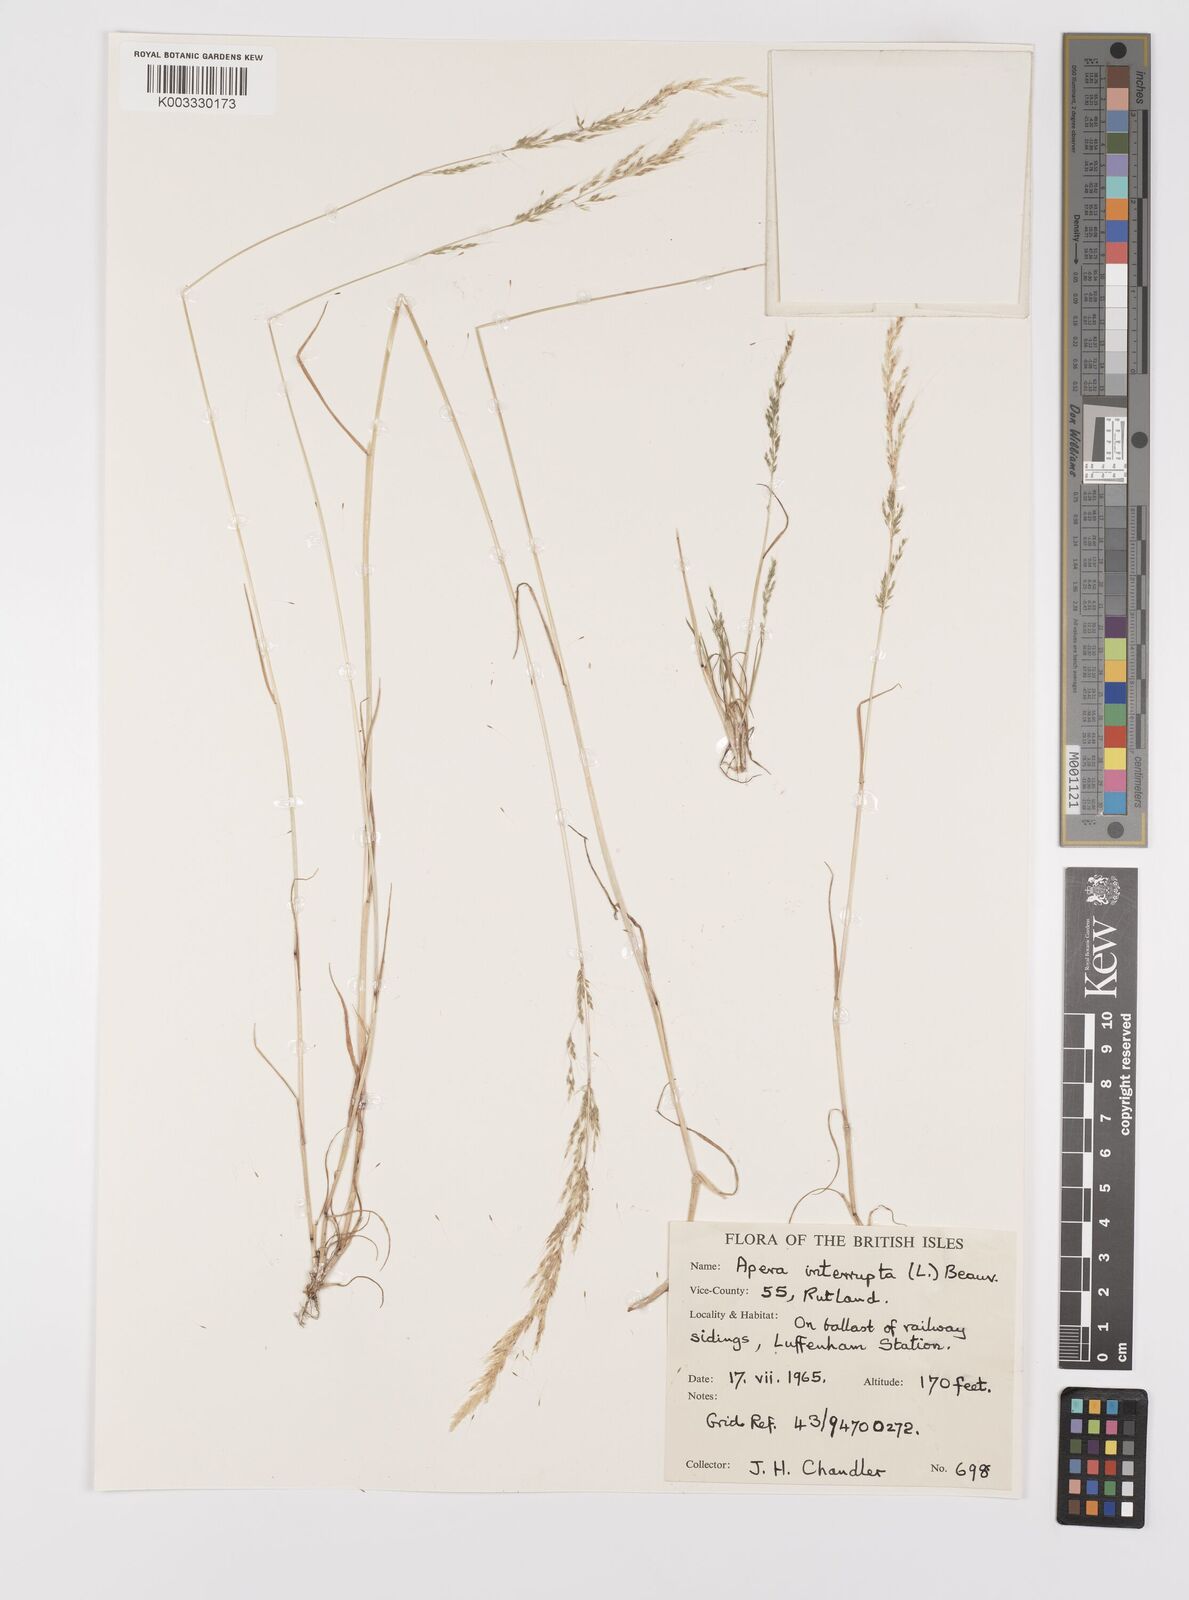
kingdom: Plantae
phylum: Tracheophyta
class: Liliopsida
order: Poales
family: Poaceae
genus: Apera
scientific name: Apera interrupta
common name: Dense silky-bent
